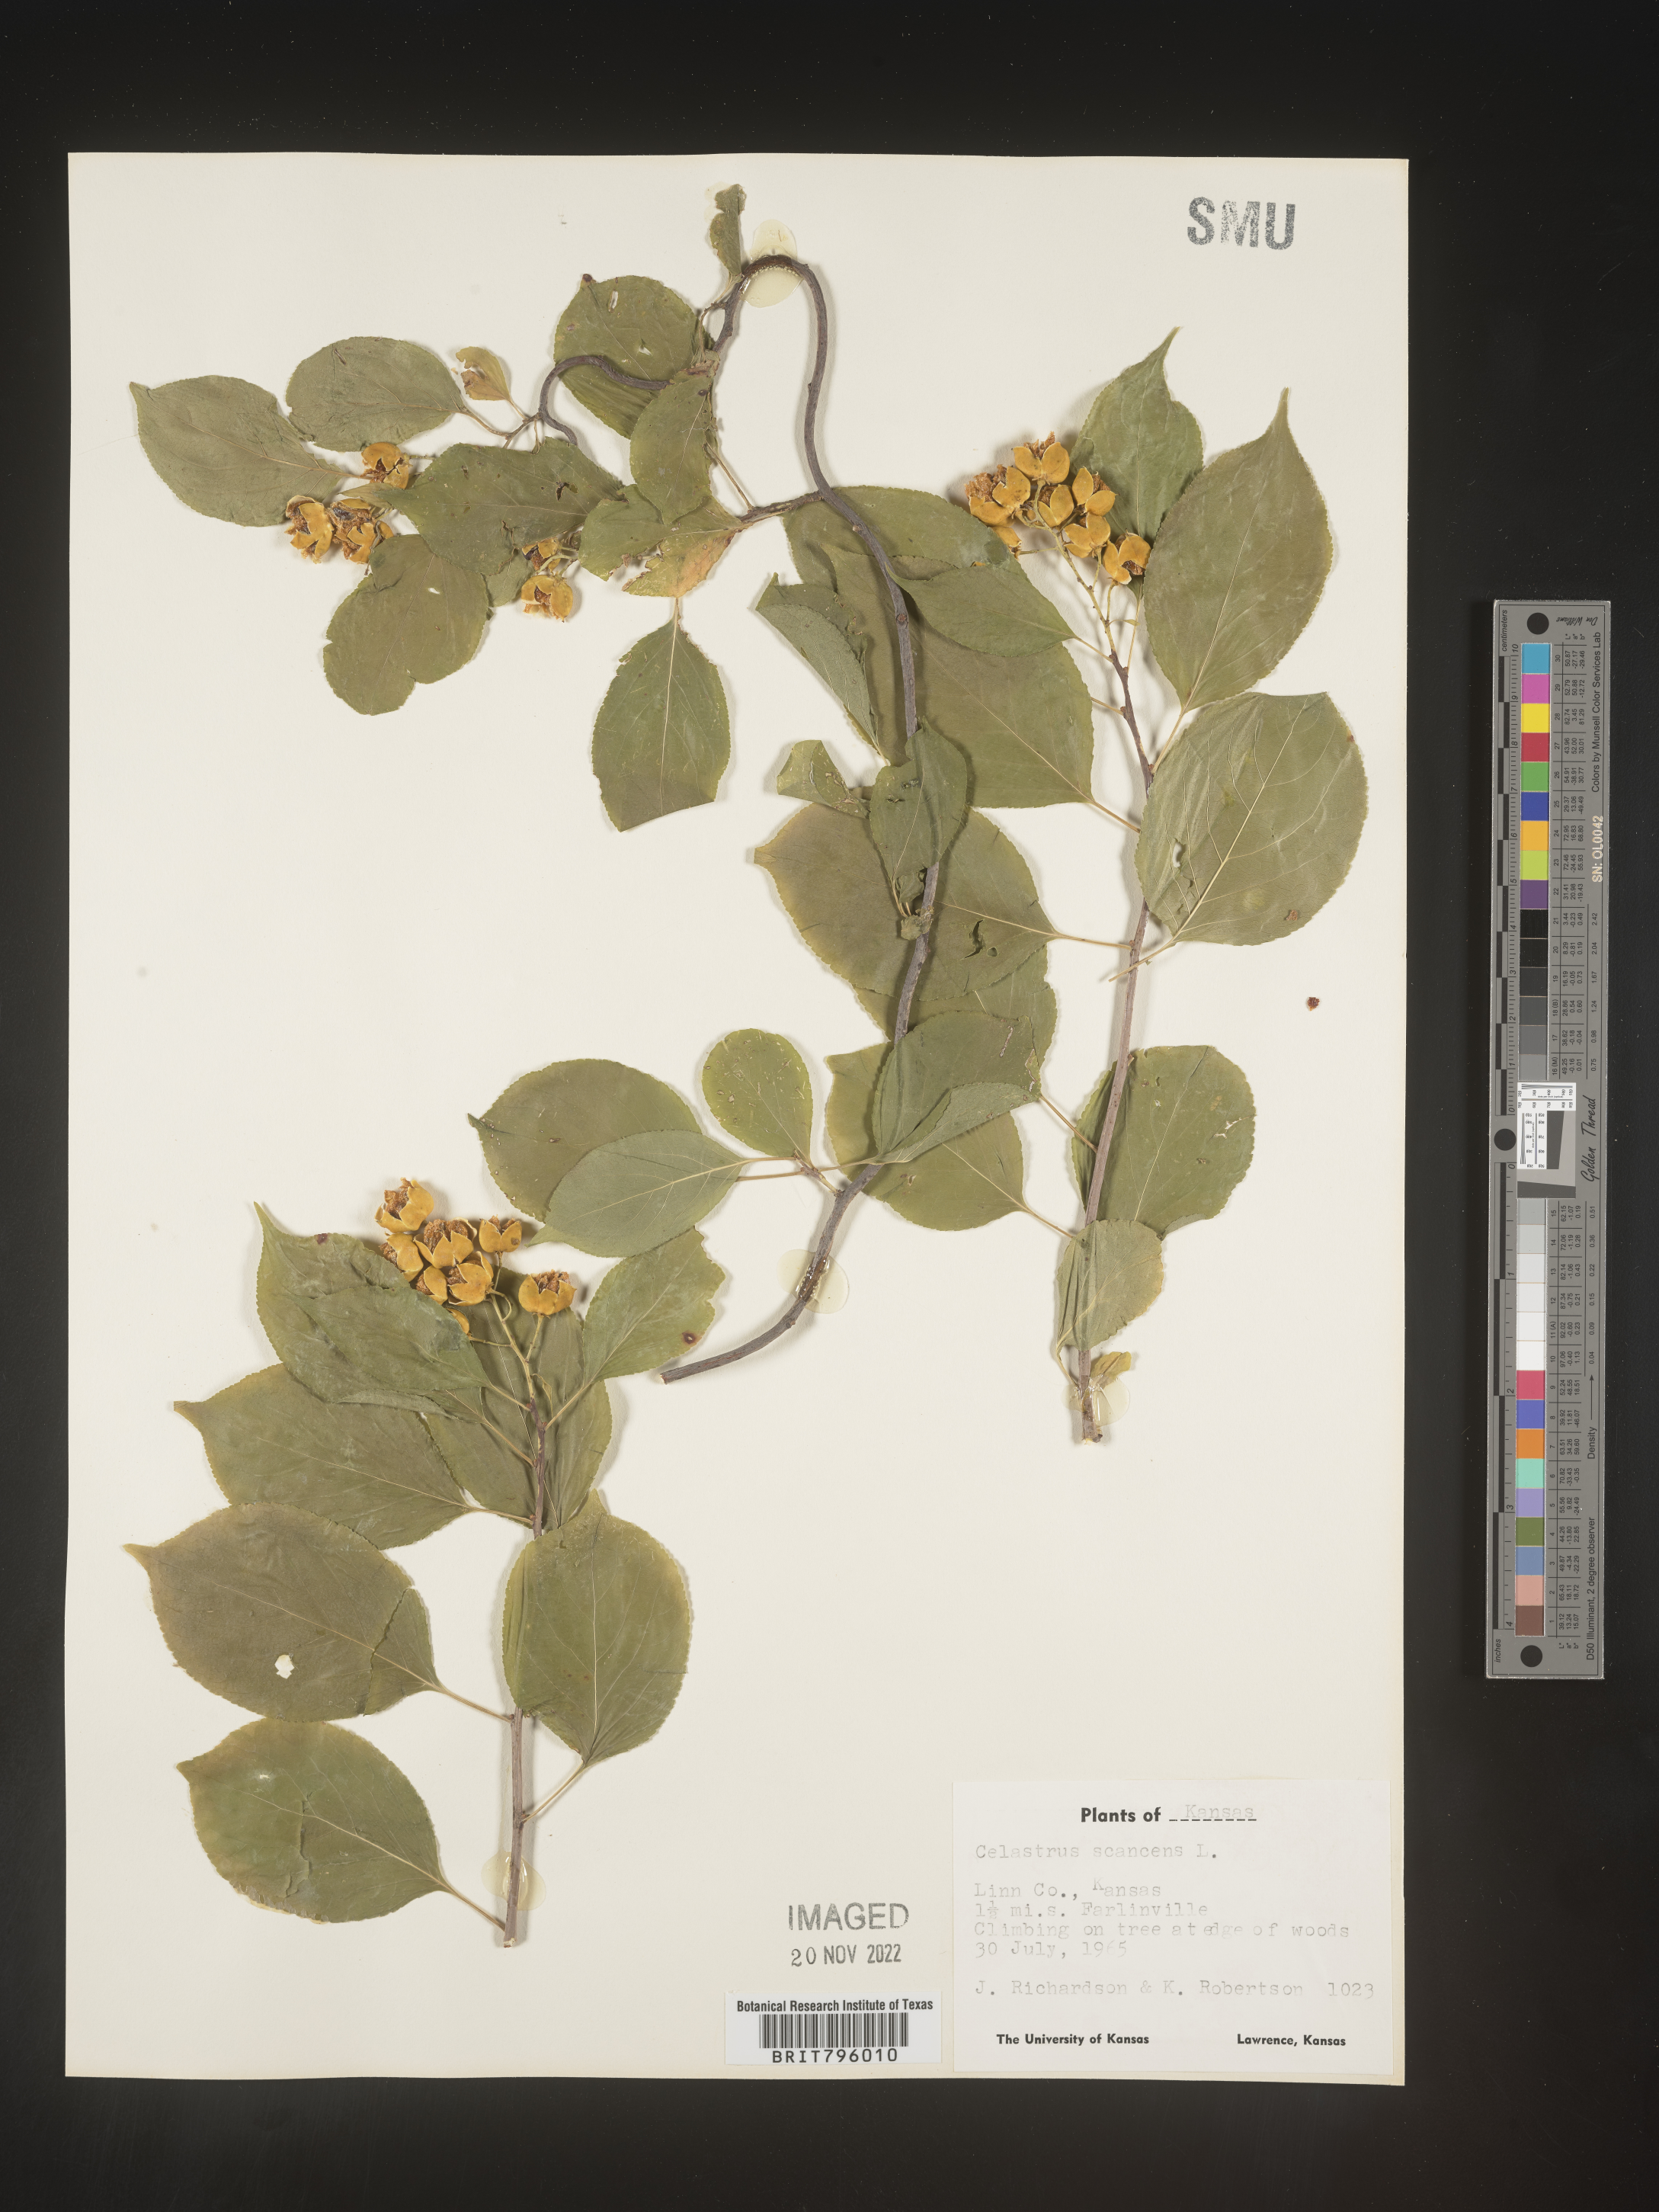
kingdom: Plantae
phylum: Tracheophyta
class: Magnoliopsida
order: Celastrales
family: Celastraceae
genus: Celastrus
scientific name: Celastrus scandens
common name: American bittersweet
